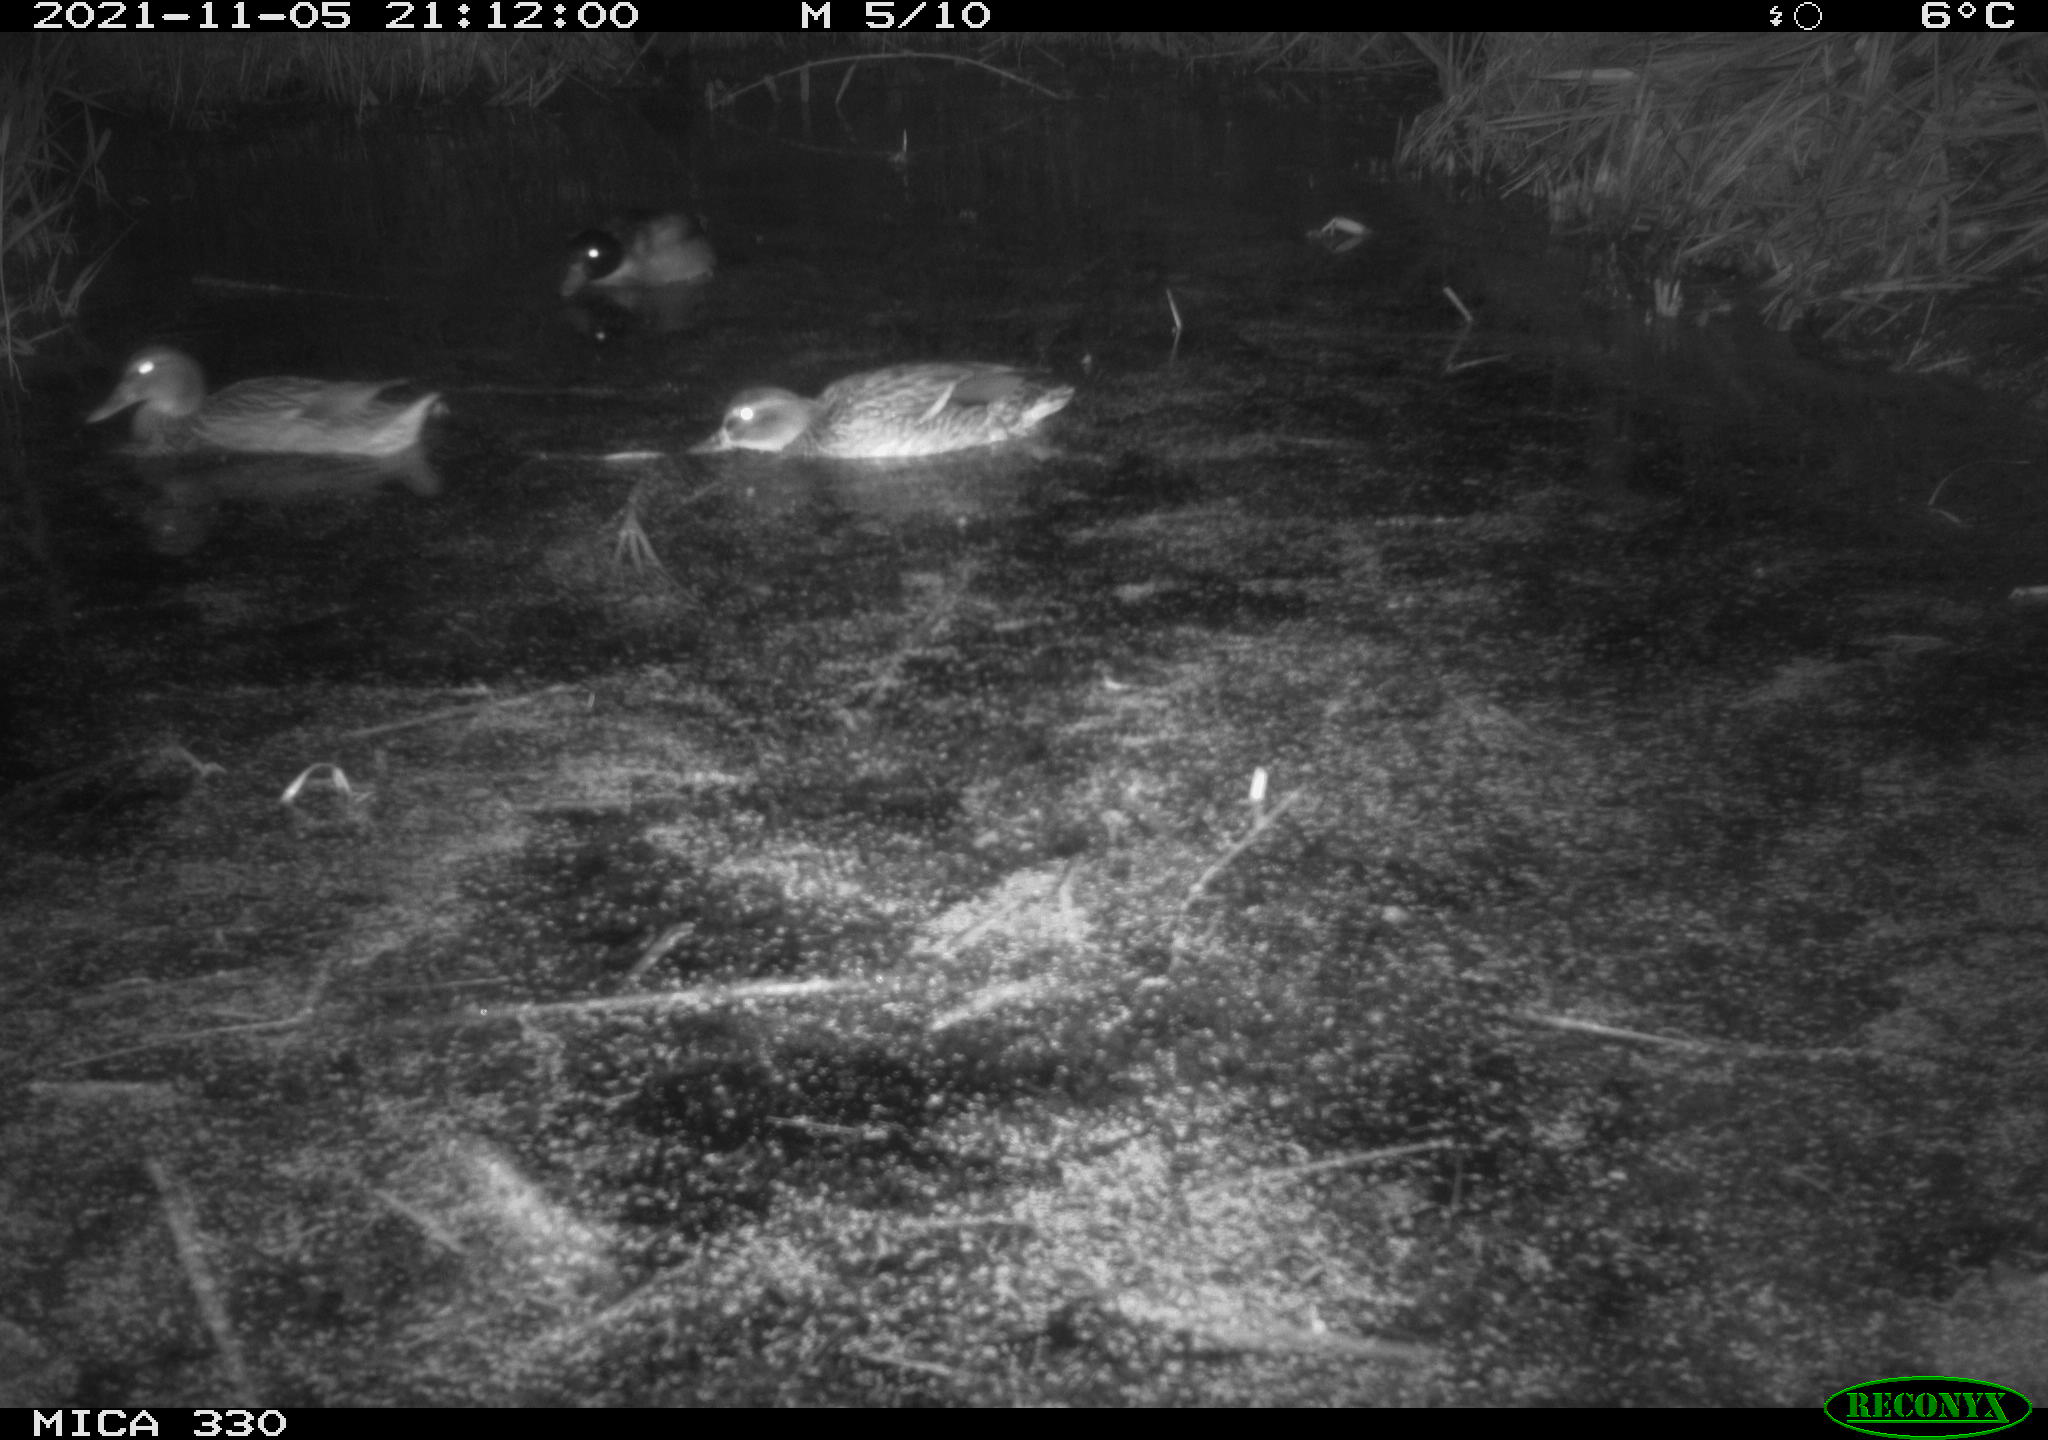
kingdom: Animalia
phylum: Chordata
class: Aves
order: Anseriformes
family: Anatidae
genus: Anas
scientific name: Anas platyrhynchos
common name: Mallard
